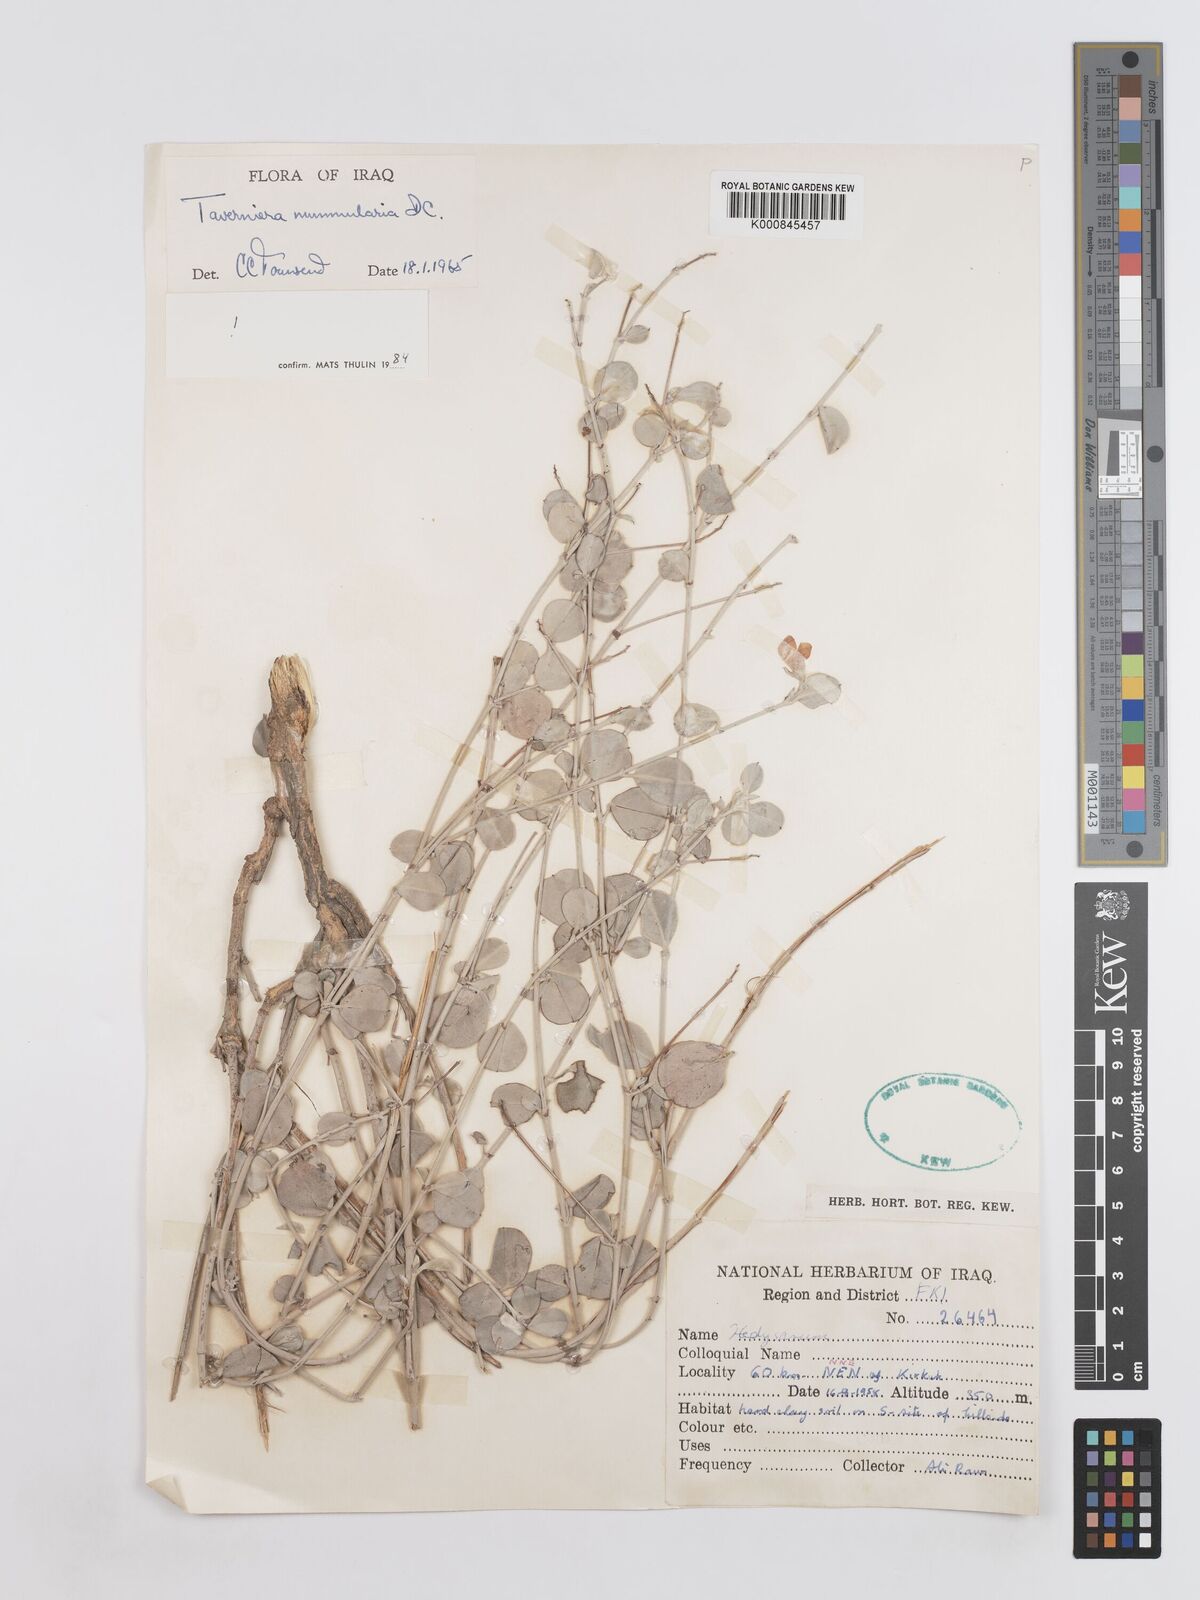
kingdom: Plantae
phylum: Tracheophyta
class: Magnoliopsida
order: Fabales
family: Fabaceae
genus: Taverniera
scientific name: Taverniera nummularia
